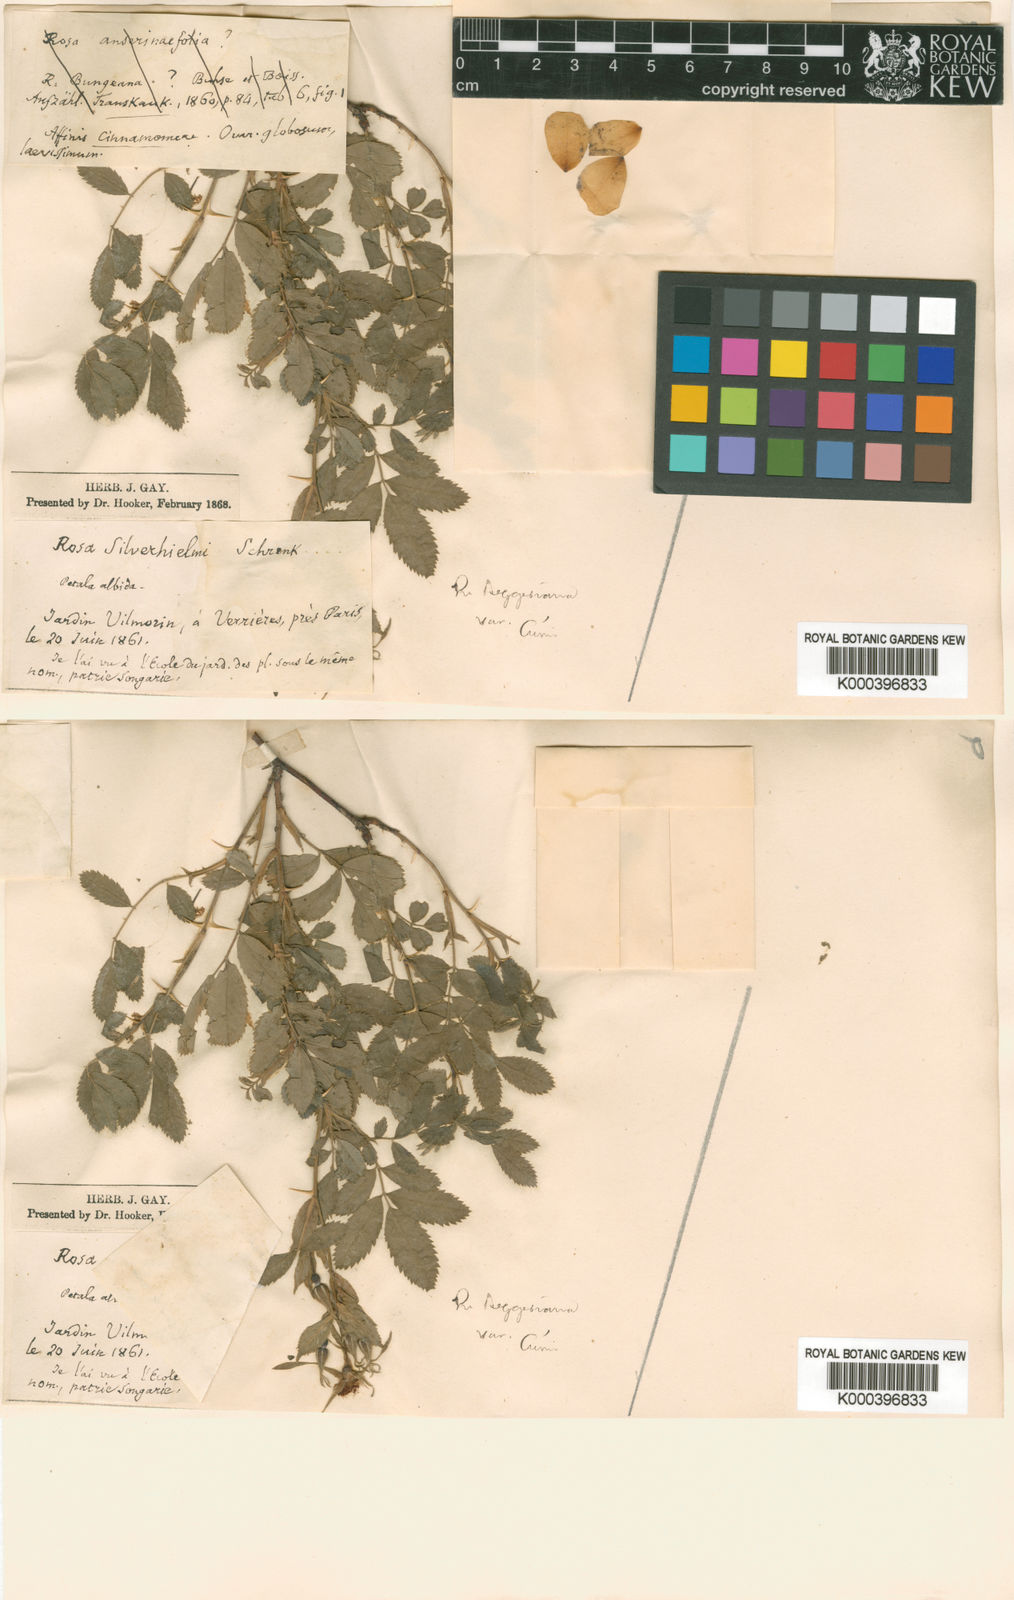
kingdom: Plantae
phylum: Tracheophyta
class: Magnoliopsida
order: Rosales
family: Rosaceae
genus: Rosa
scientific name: Rosa beggeriana
